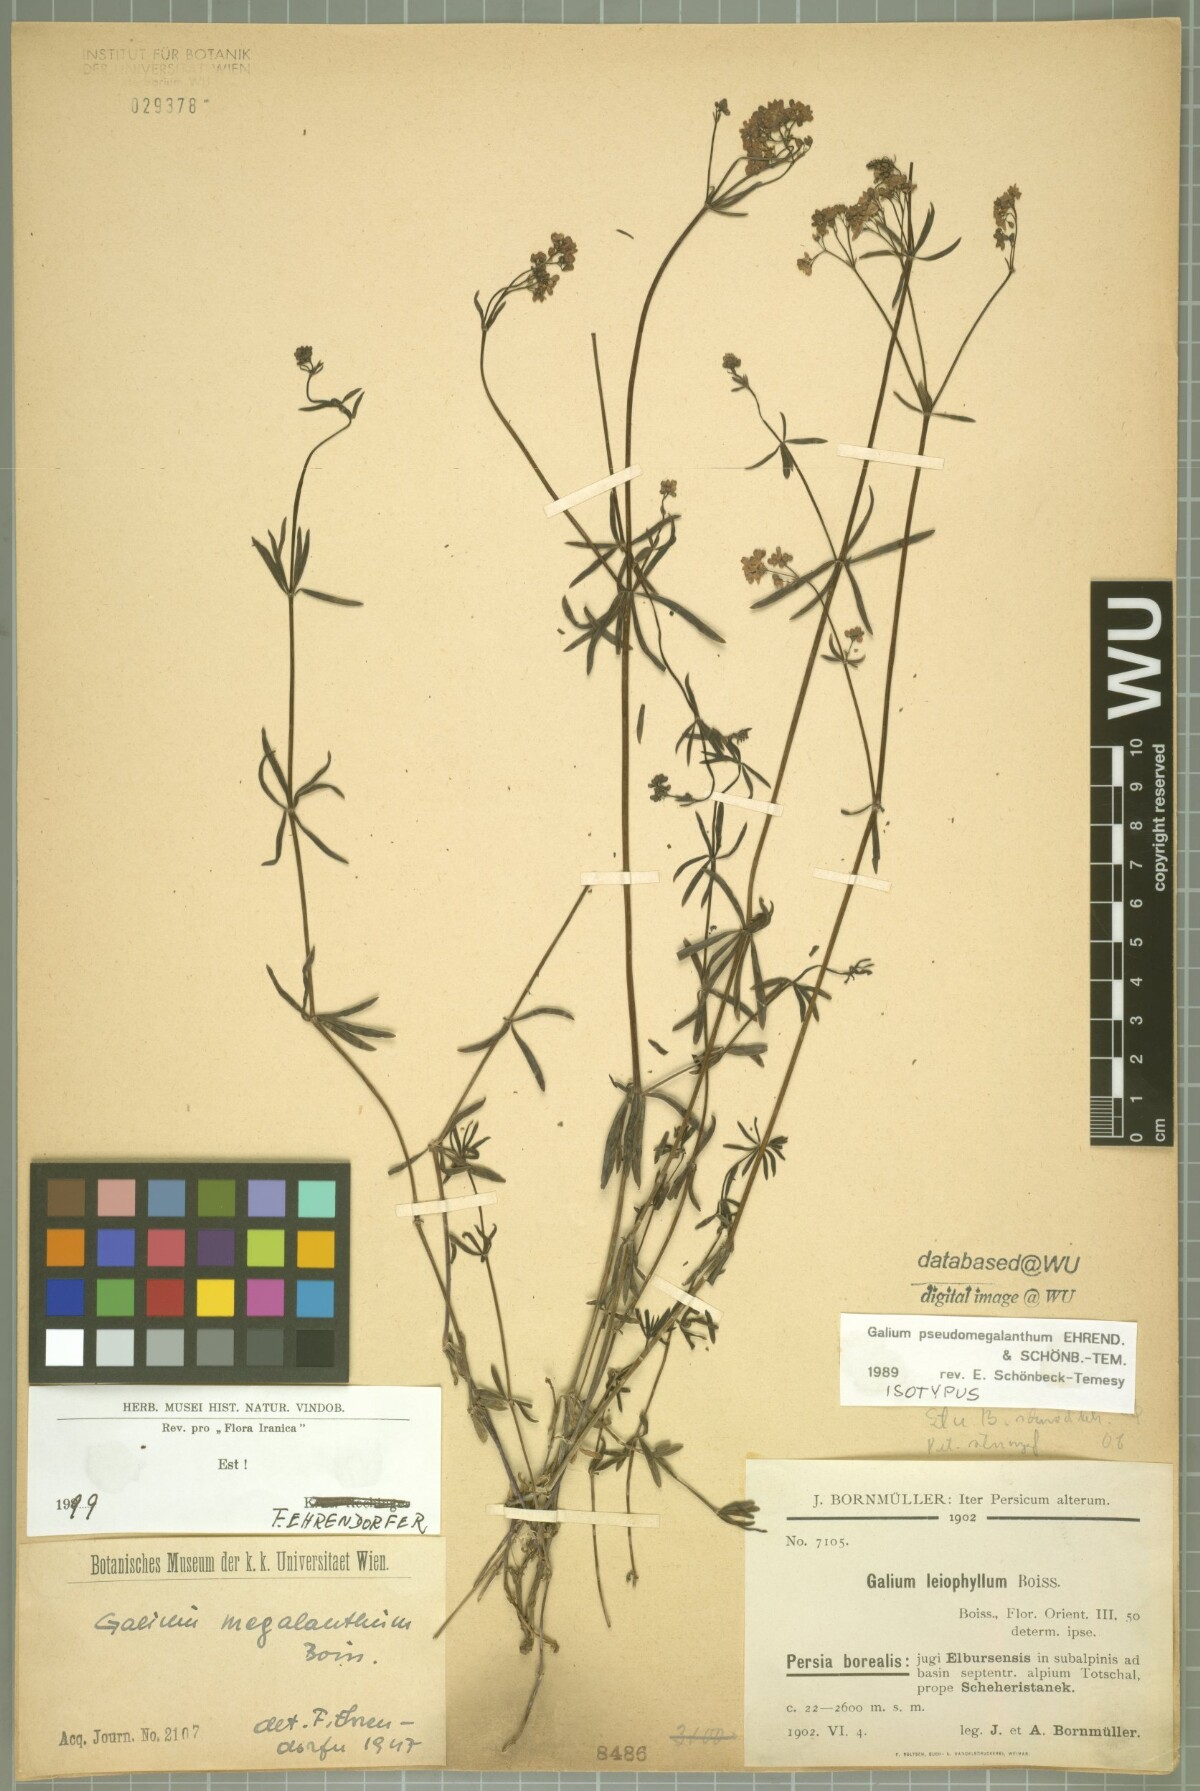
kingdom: Plantae
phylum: Tracheophyta
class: Magnoliopsida
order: Gentianales
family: Rubiaceae
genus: Galium
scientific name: Galium megalanthum
